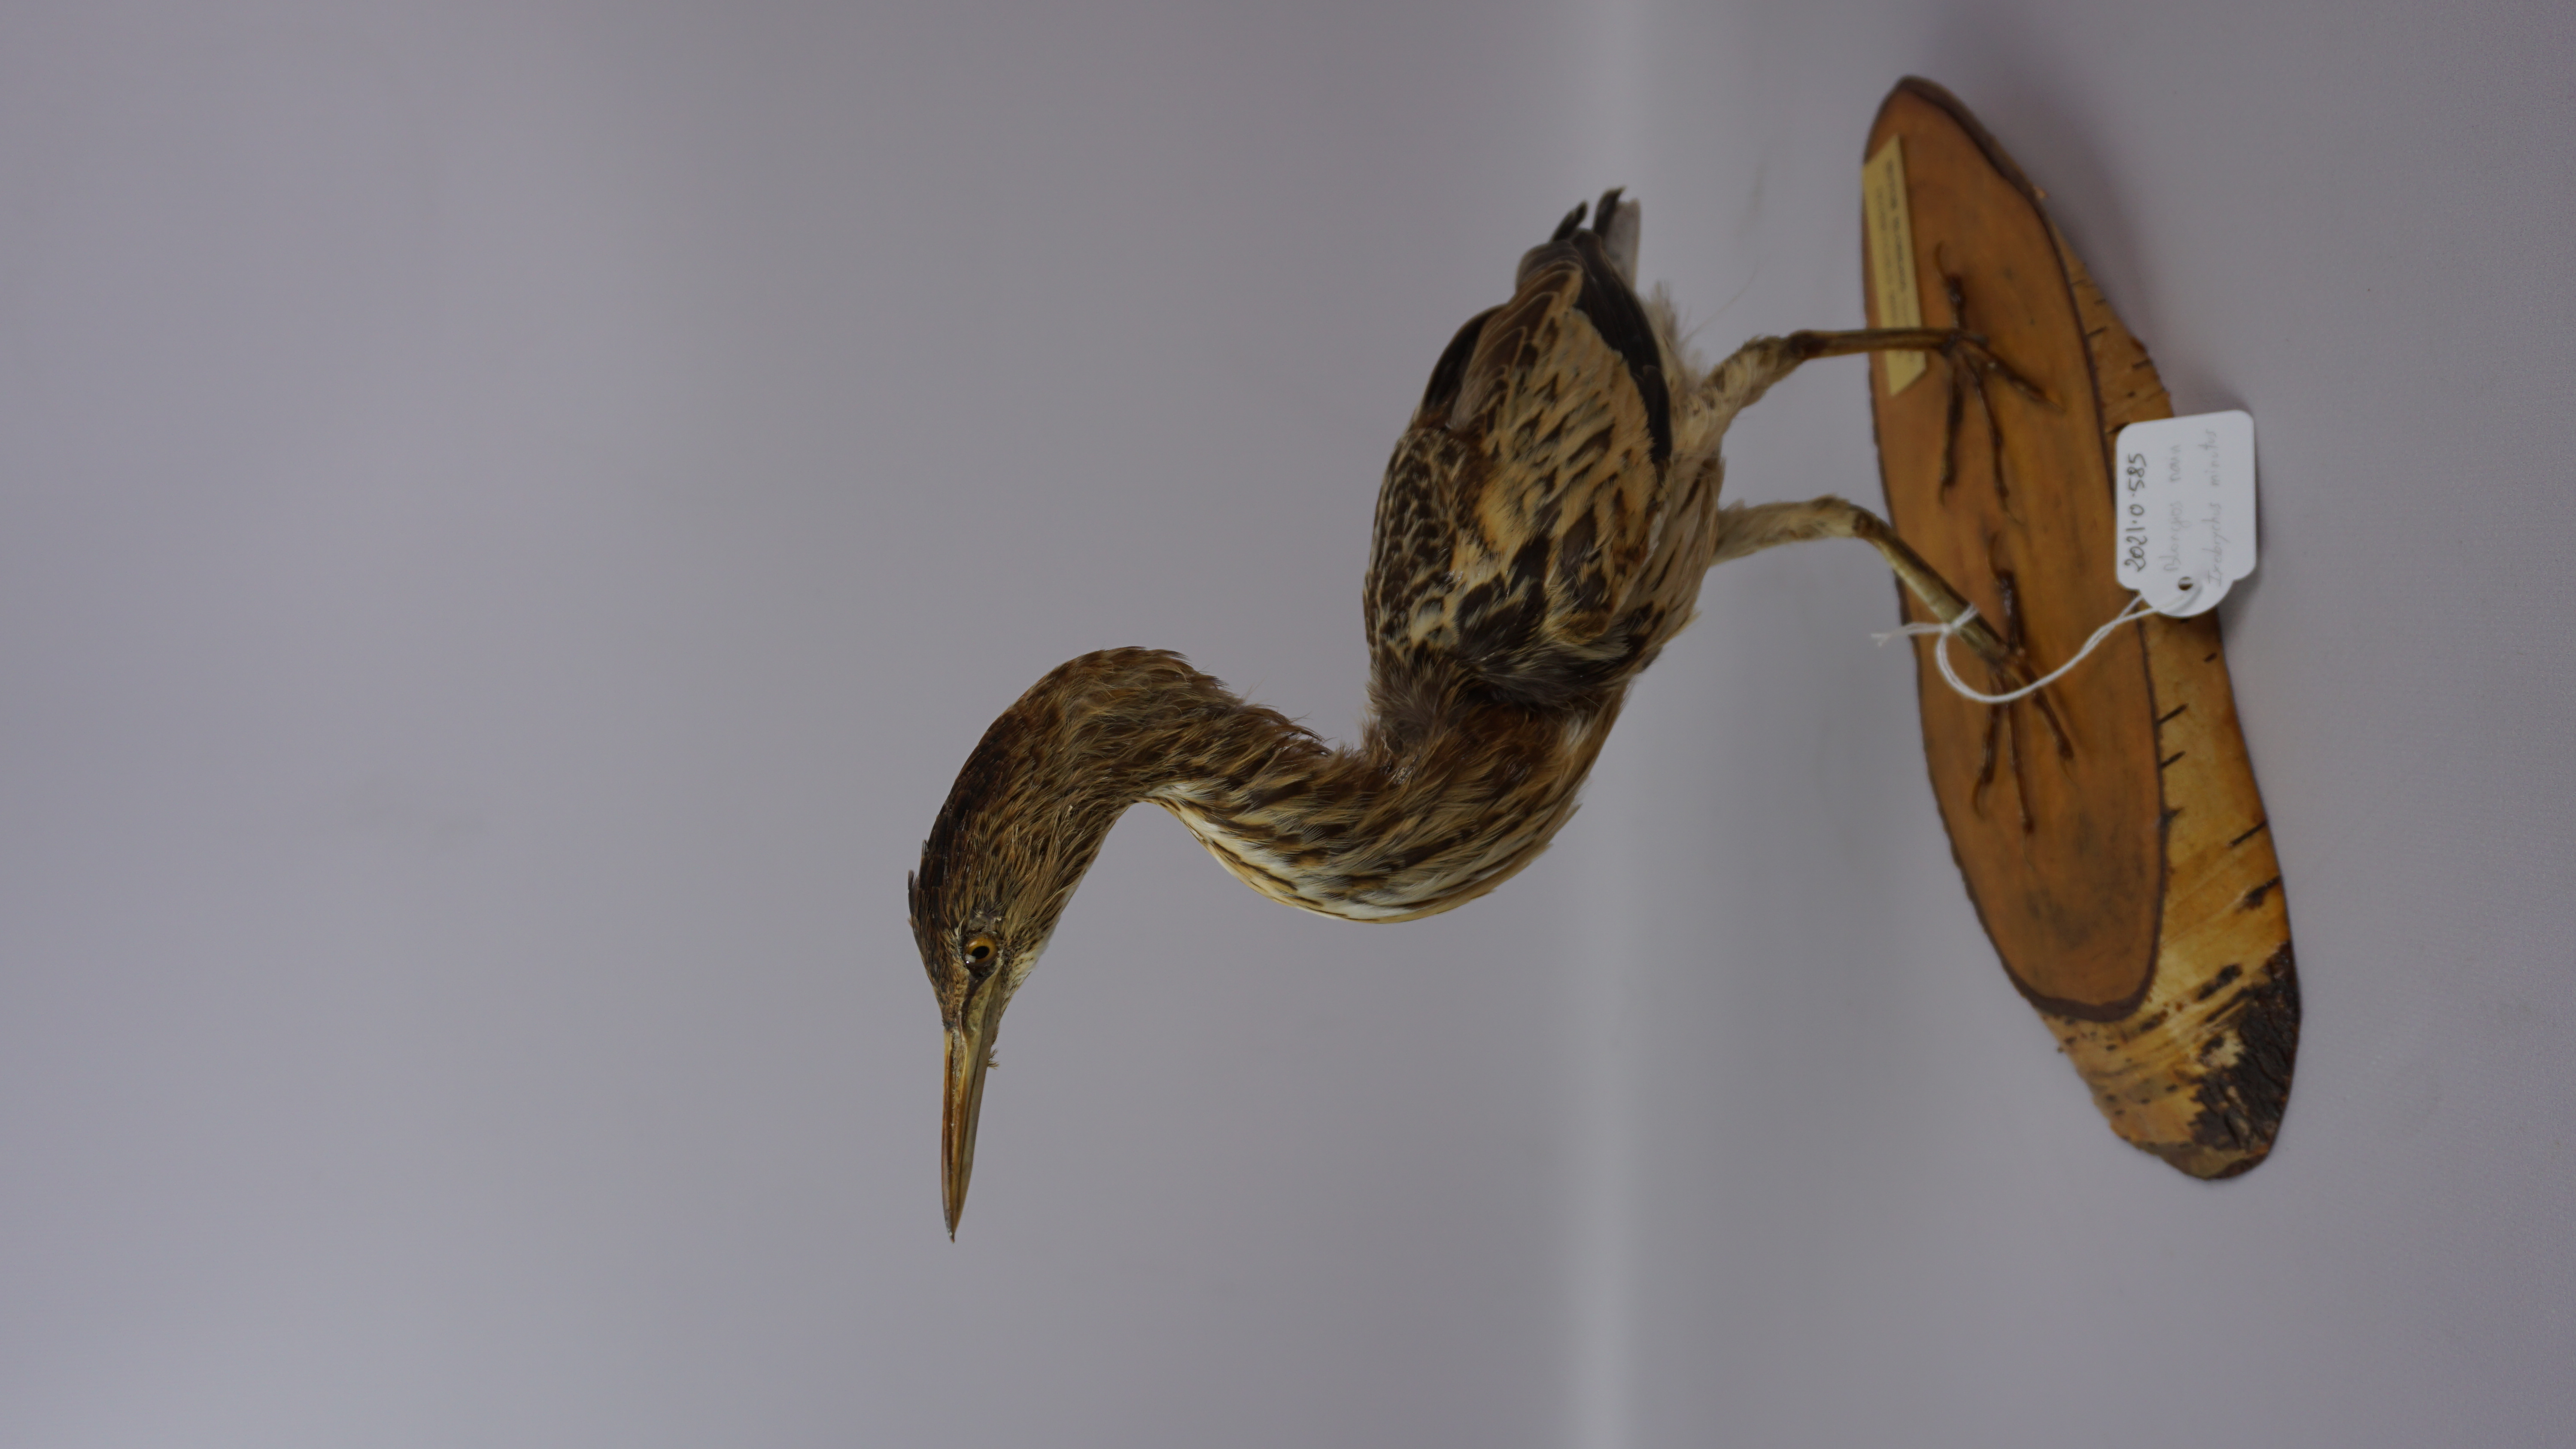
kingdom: Animalia
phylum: Chordata
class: Aves
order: Pelecaniformes
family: Ardeidae
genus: Ixobrychus
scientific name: Ixobrychus minutus
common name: Little bittern
